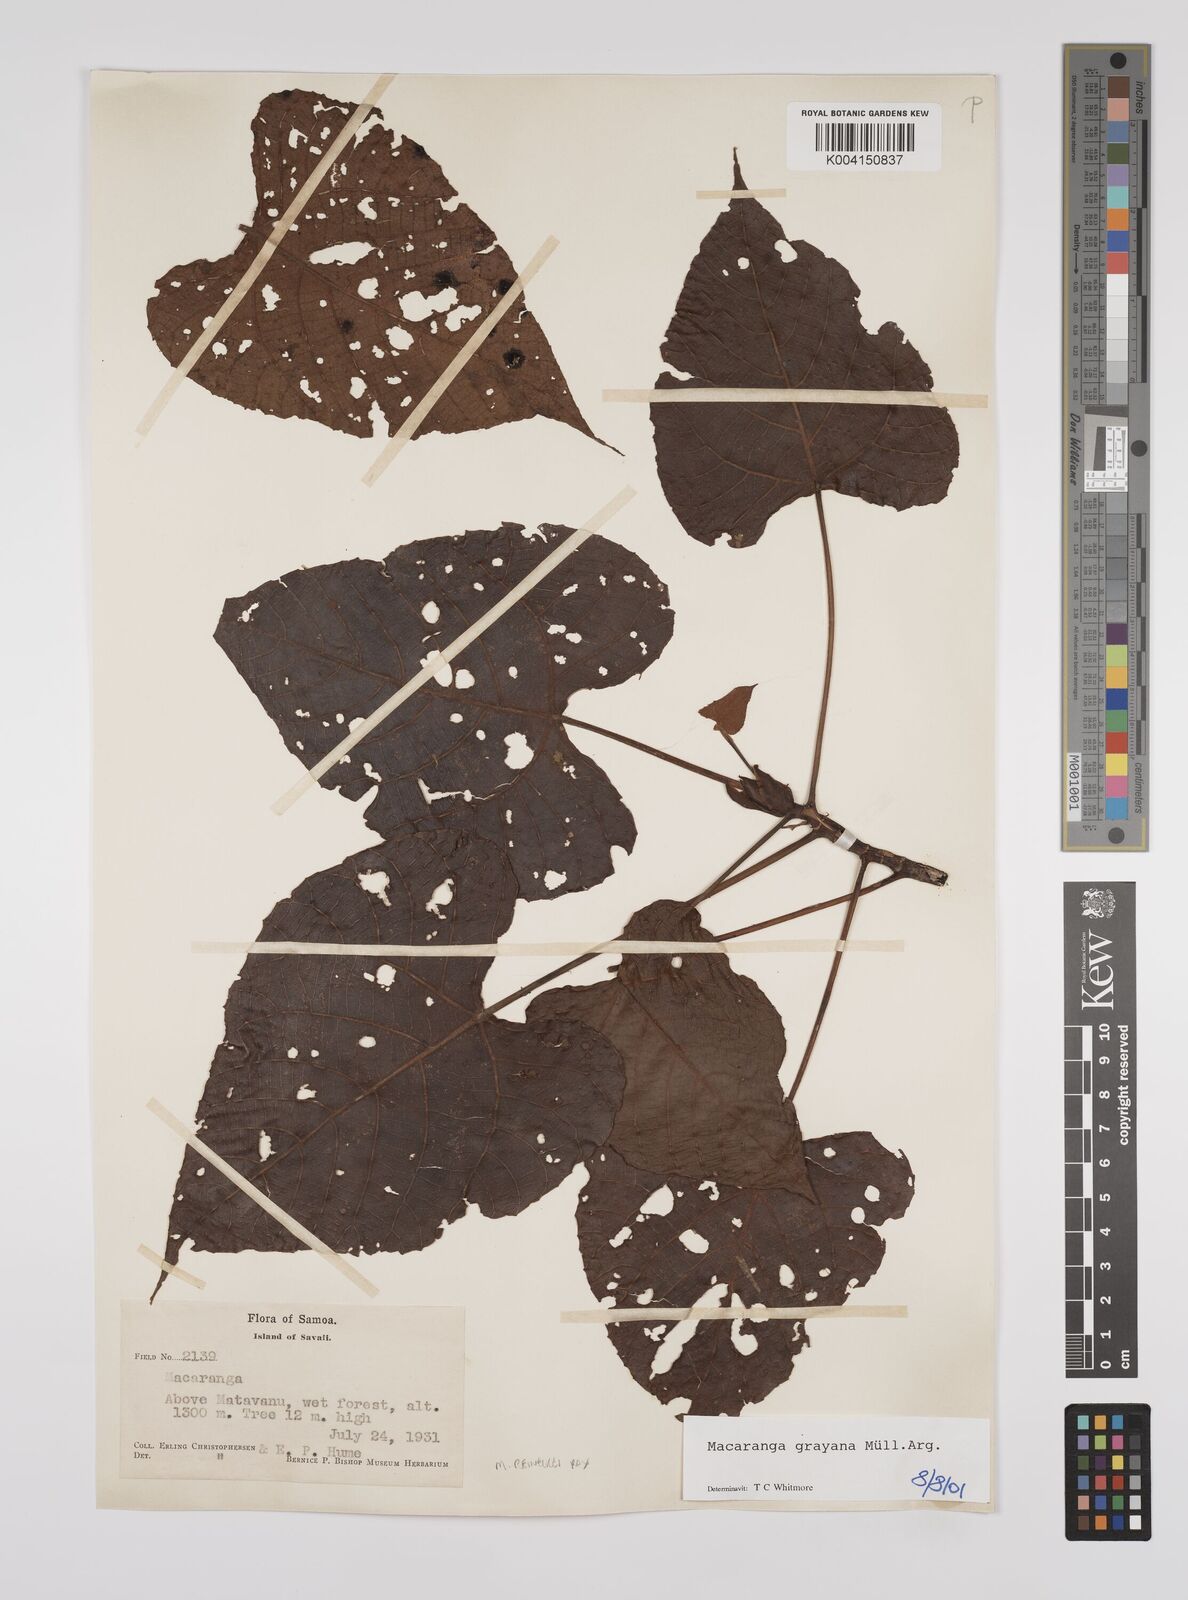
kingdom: Plantae
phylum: Tracheophyta
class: Magnoliopsida
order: Malpighiales
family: Euphorbiaceae
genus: Macaranga
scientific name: Macaranga grayana
